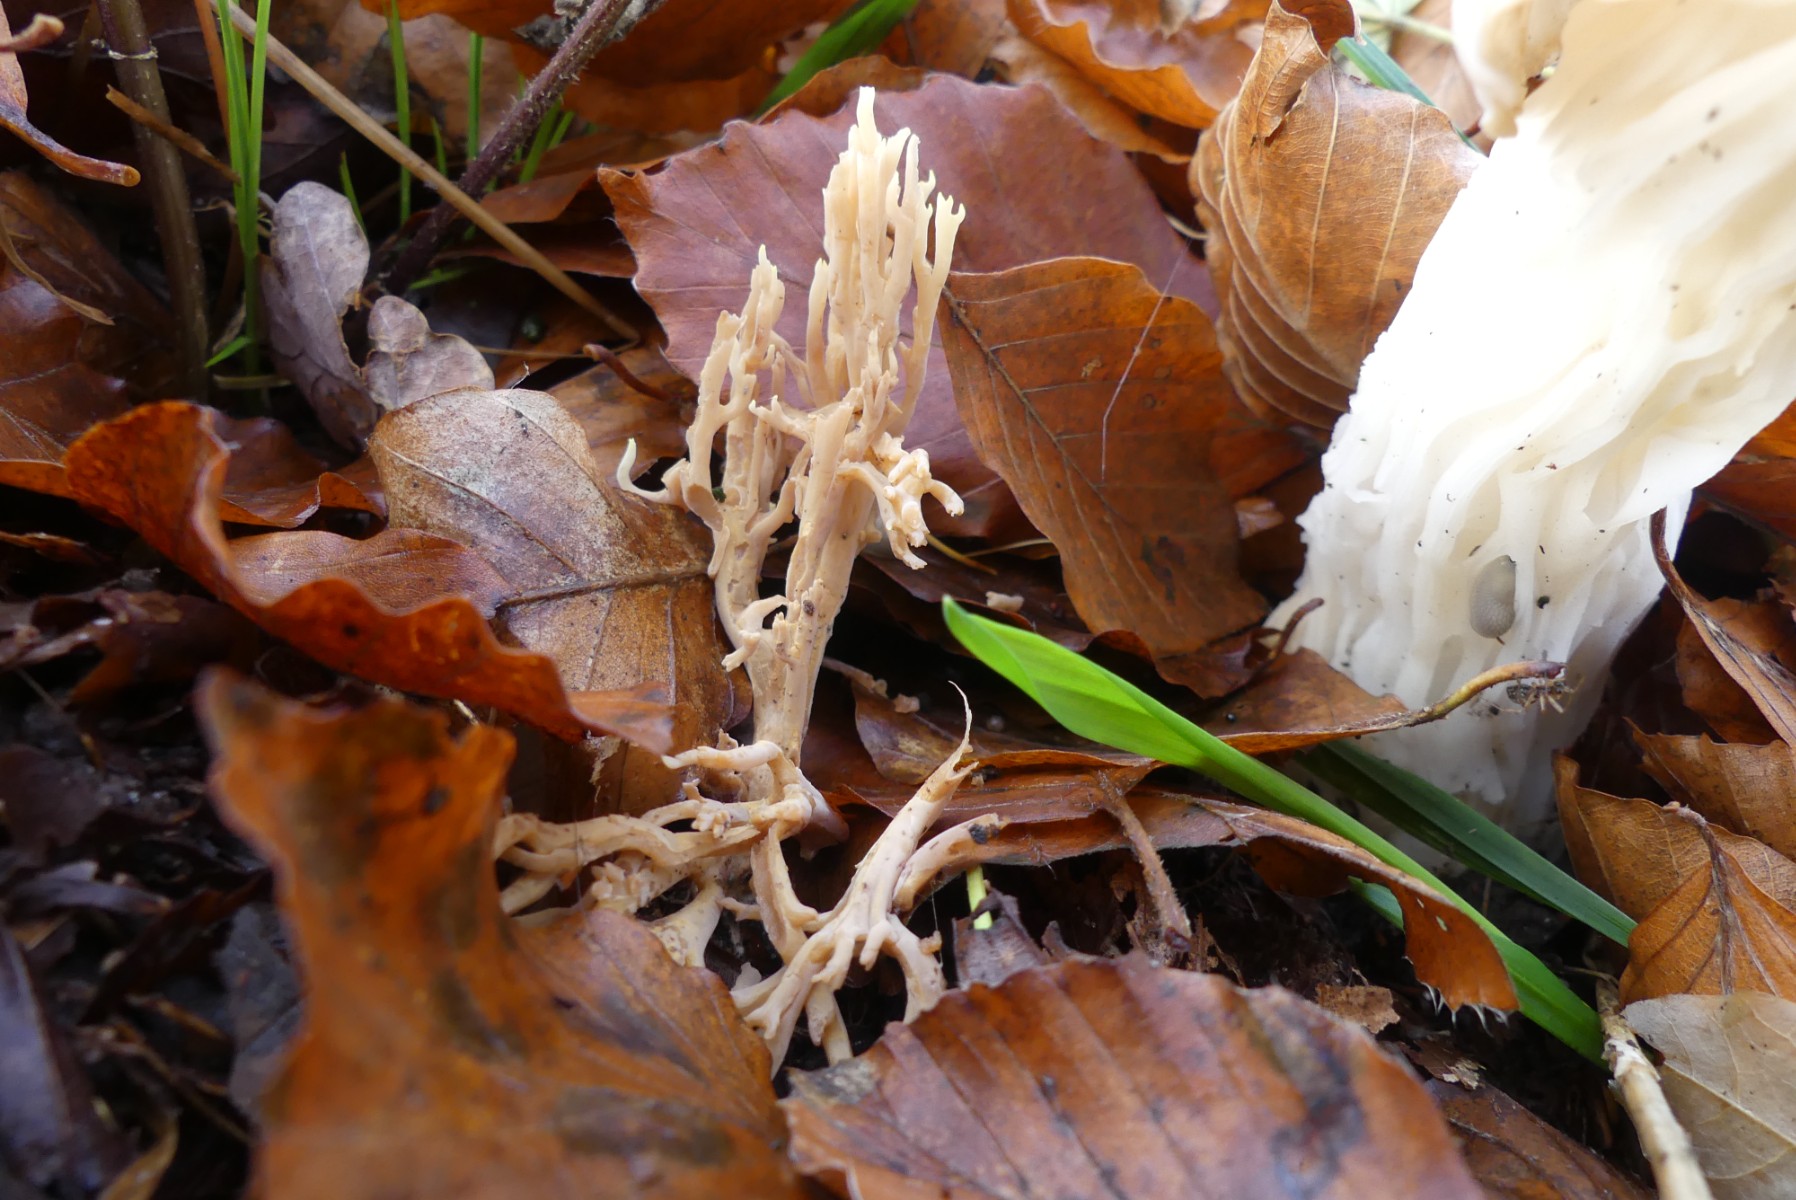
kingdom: Fungi
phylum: Basidiomycota
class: Agaricomycetes
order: Gomphales
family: Gomphaceae
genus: Ramaria
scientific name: Ramaria stricta
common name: rank koralsvamp
